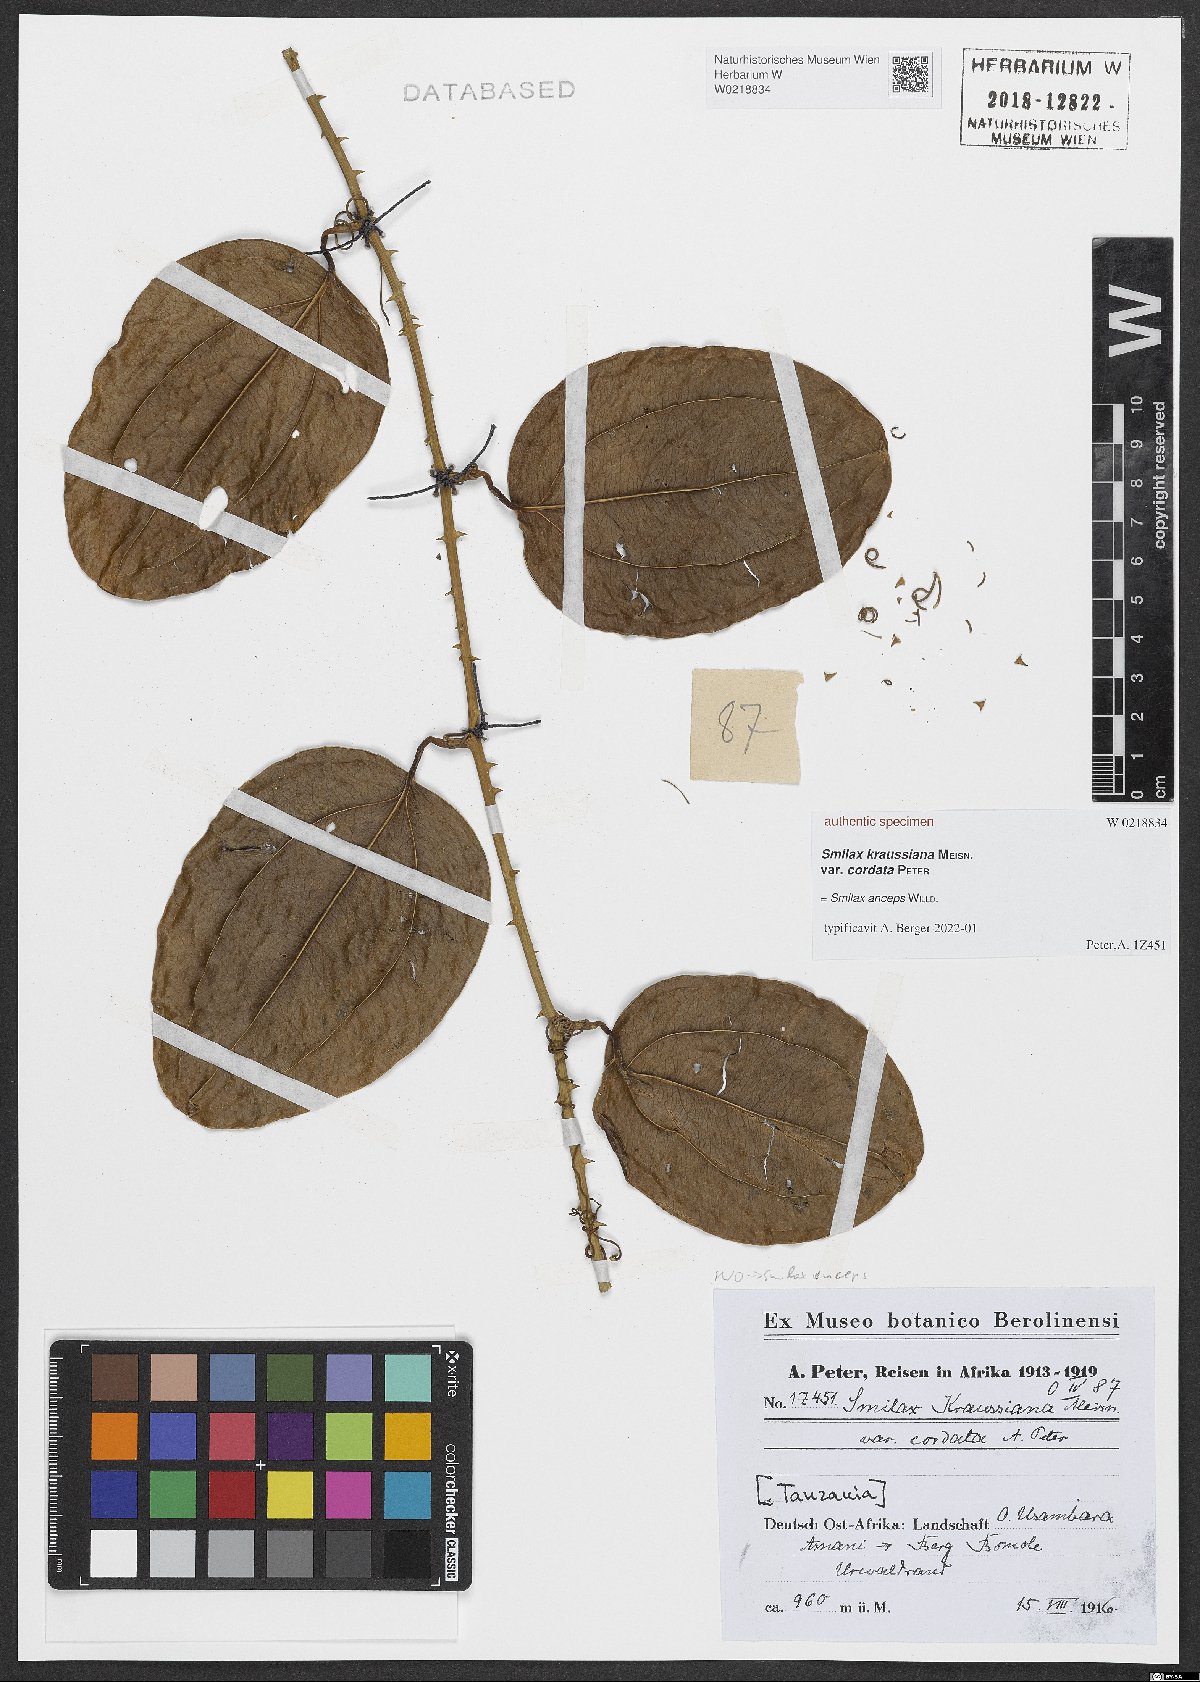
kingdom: Plantae
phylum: Tracheophyta
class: Liliopsida
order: Liliales
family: Smilacaceae
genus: Smilax
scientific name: Smilax anceps
